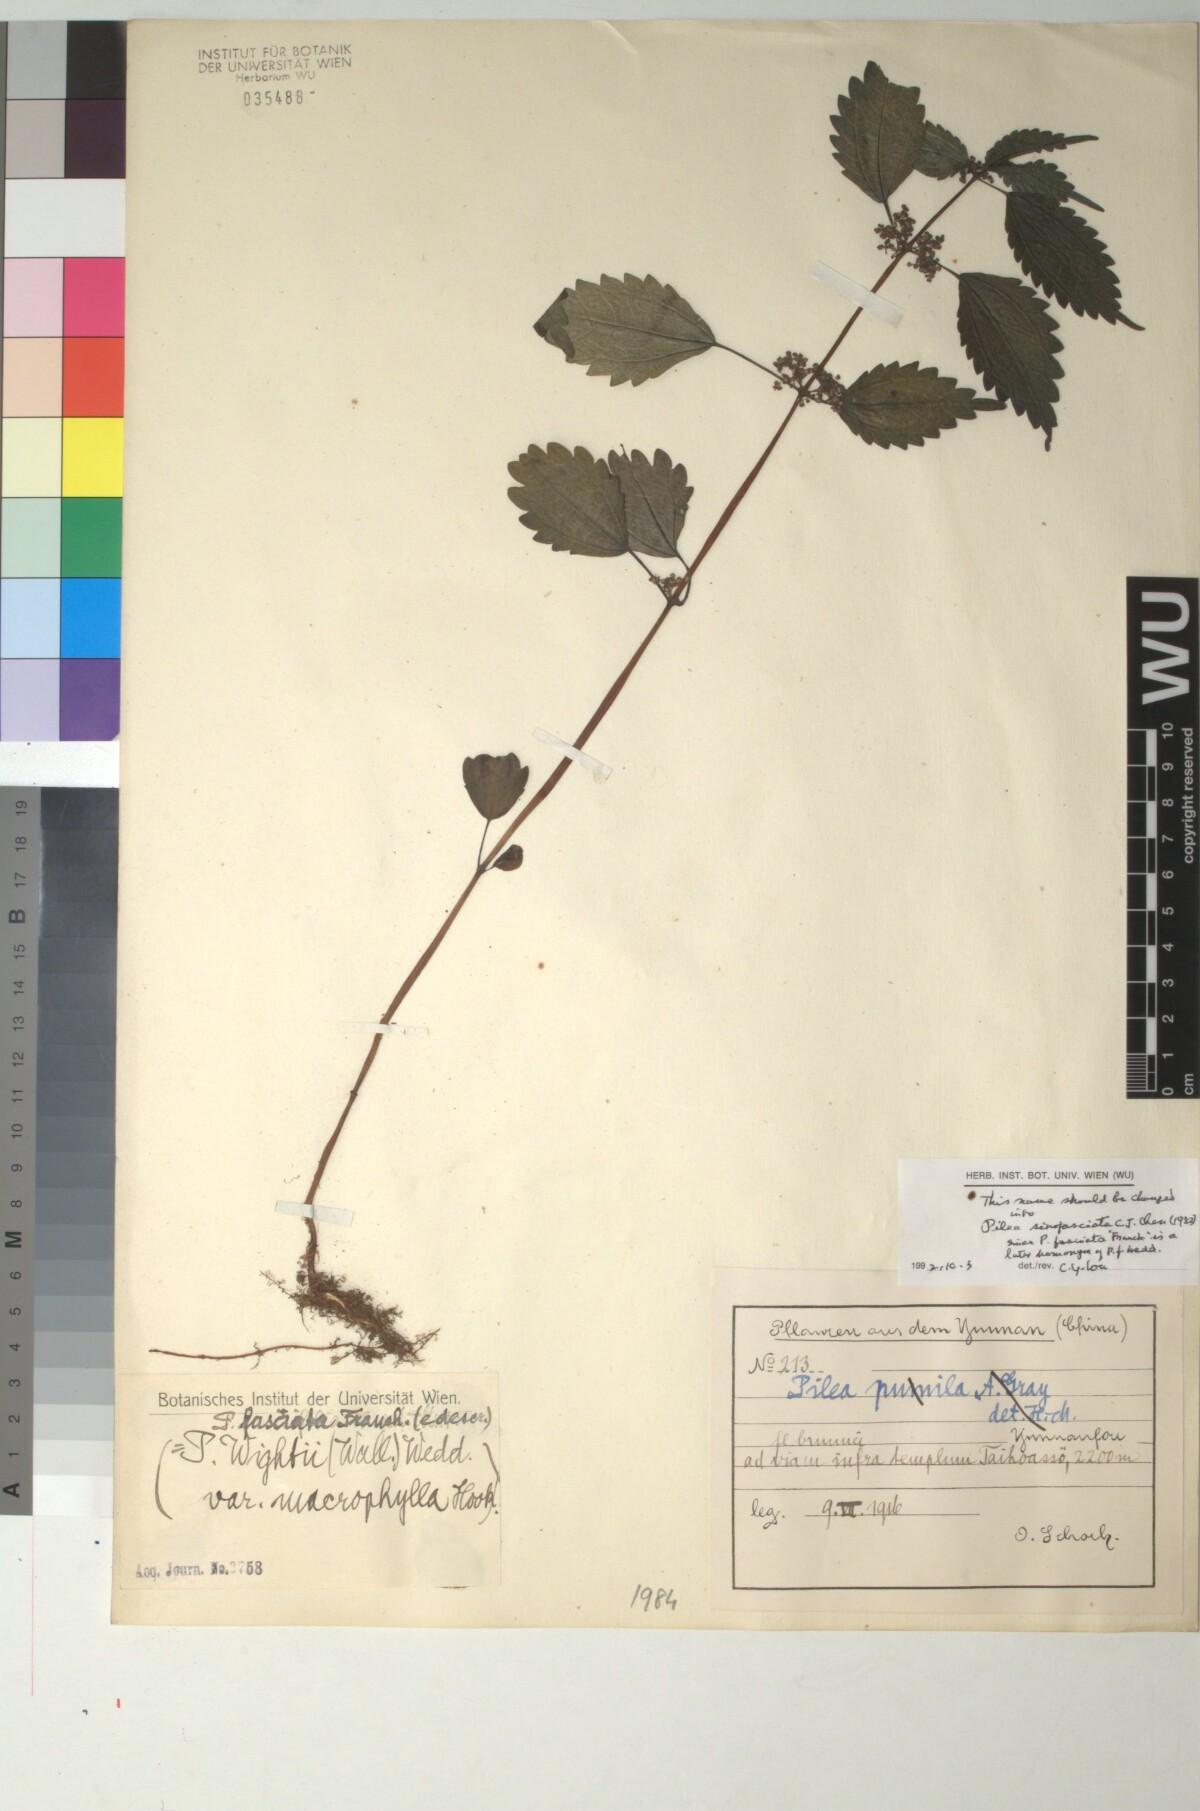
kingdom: Plantae
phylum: Tracheophyta
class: Magnoliopsida
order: Rosales
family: Urticaceae
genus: Pilea
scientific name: Pilea sinofasciata
